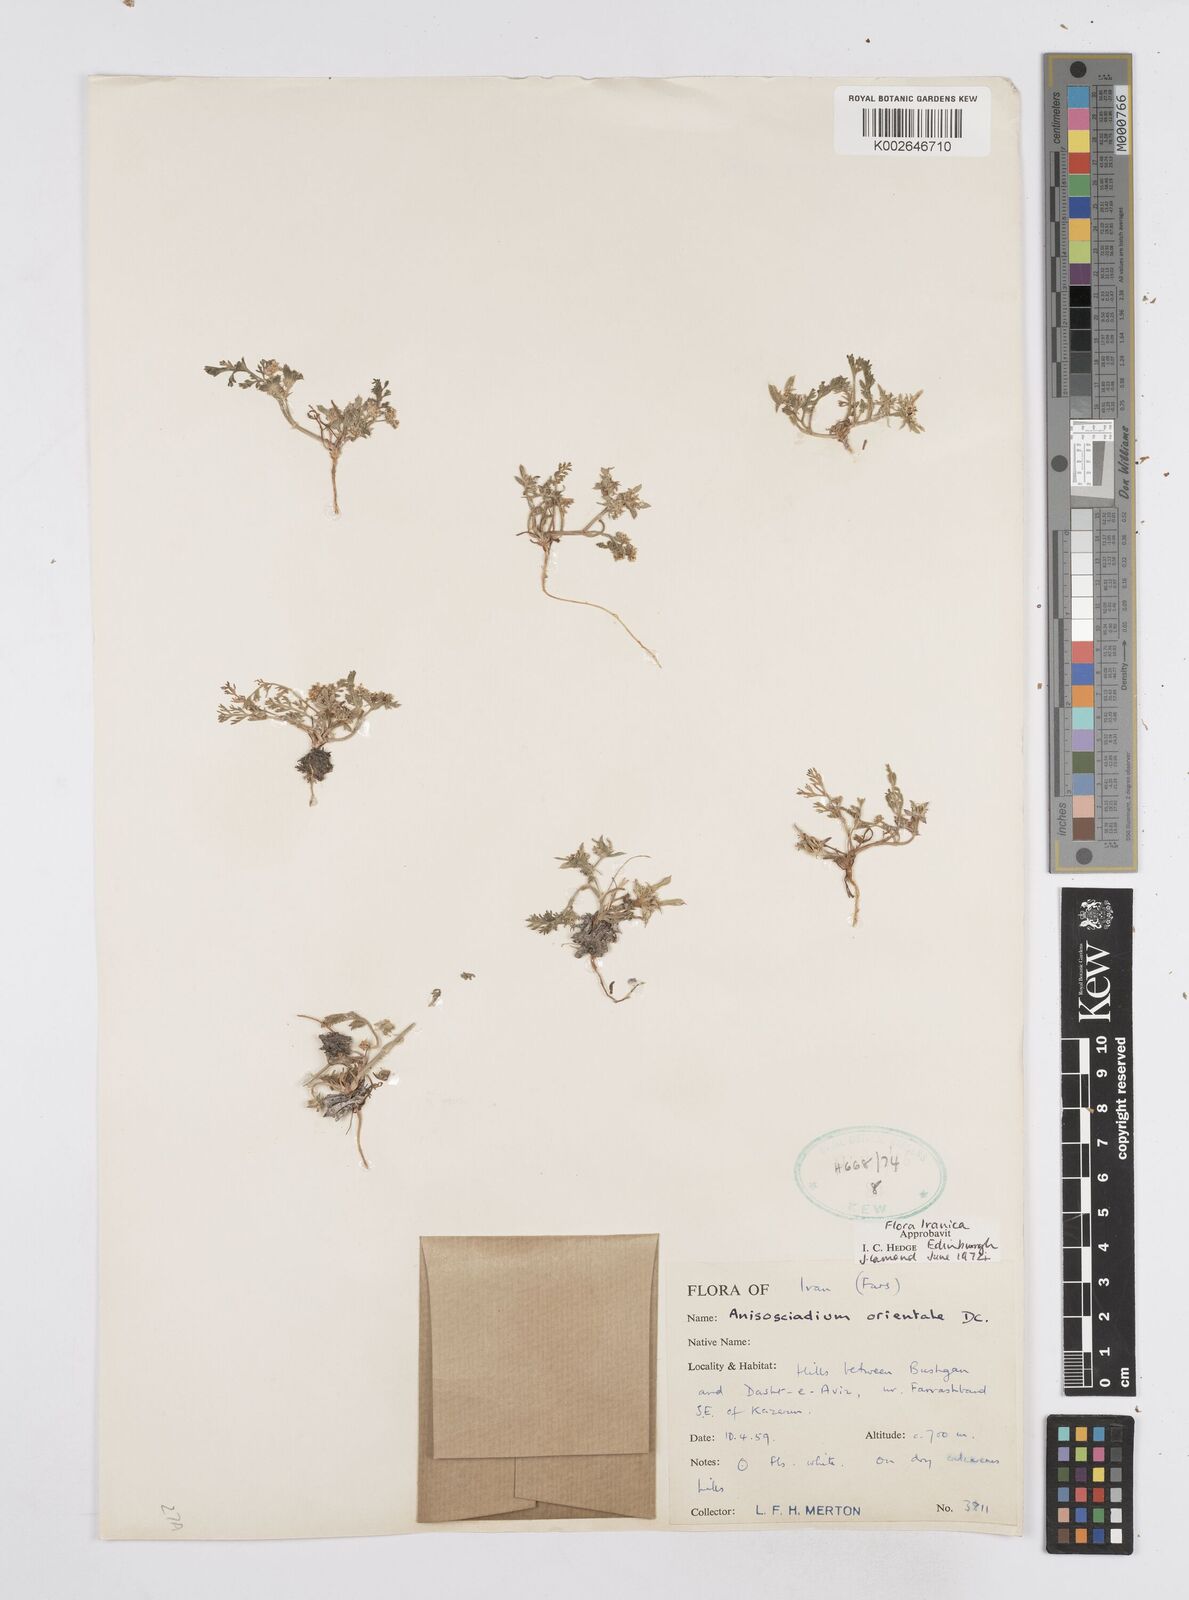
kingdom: Plantae
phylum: Tracheophyta
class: Magnoliopsida
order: Apiales
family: Apiaceae
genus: Anisosciadium
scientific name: Anisosciadium orientale
